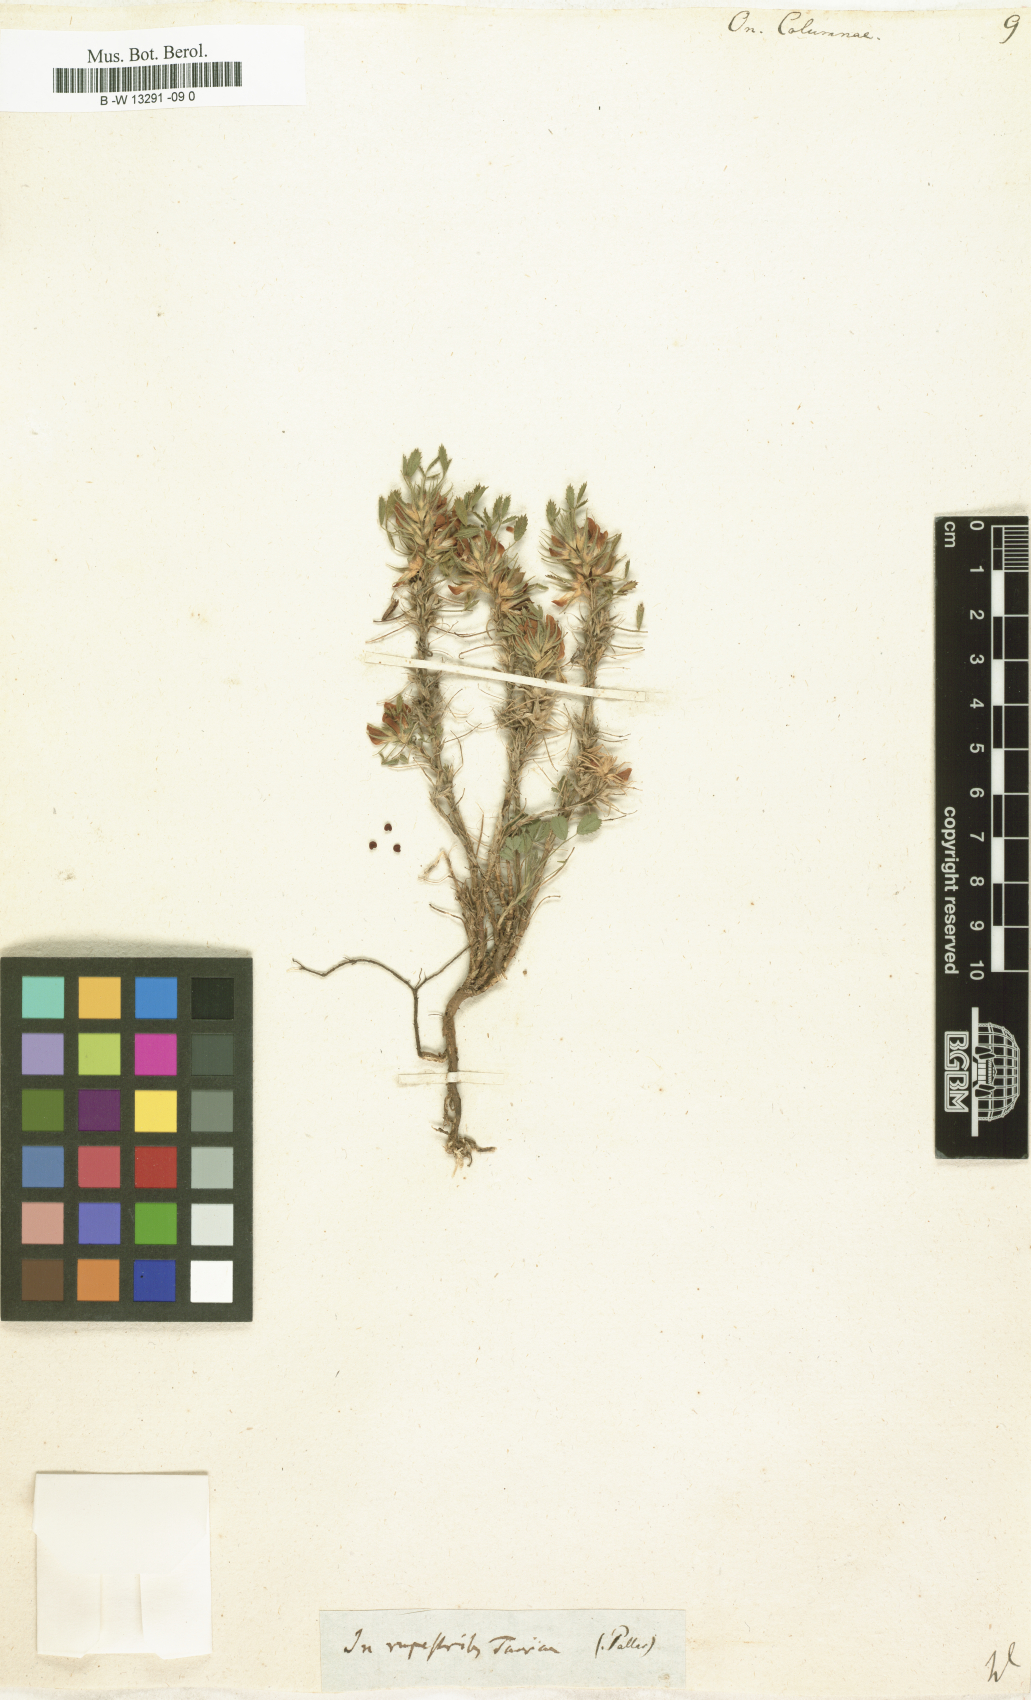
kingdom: Plantae
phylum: Tracheophyta
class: Magnoliopsida
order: Fabales
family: Fabaceae
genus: Ononis
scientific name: Ononis pusilla
